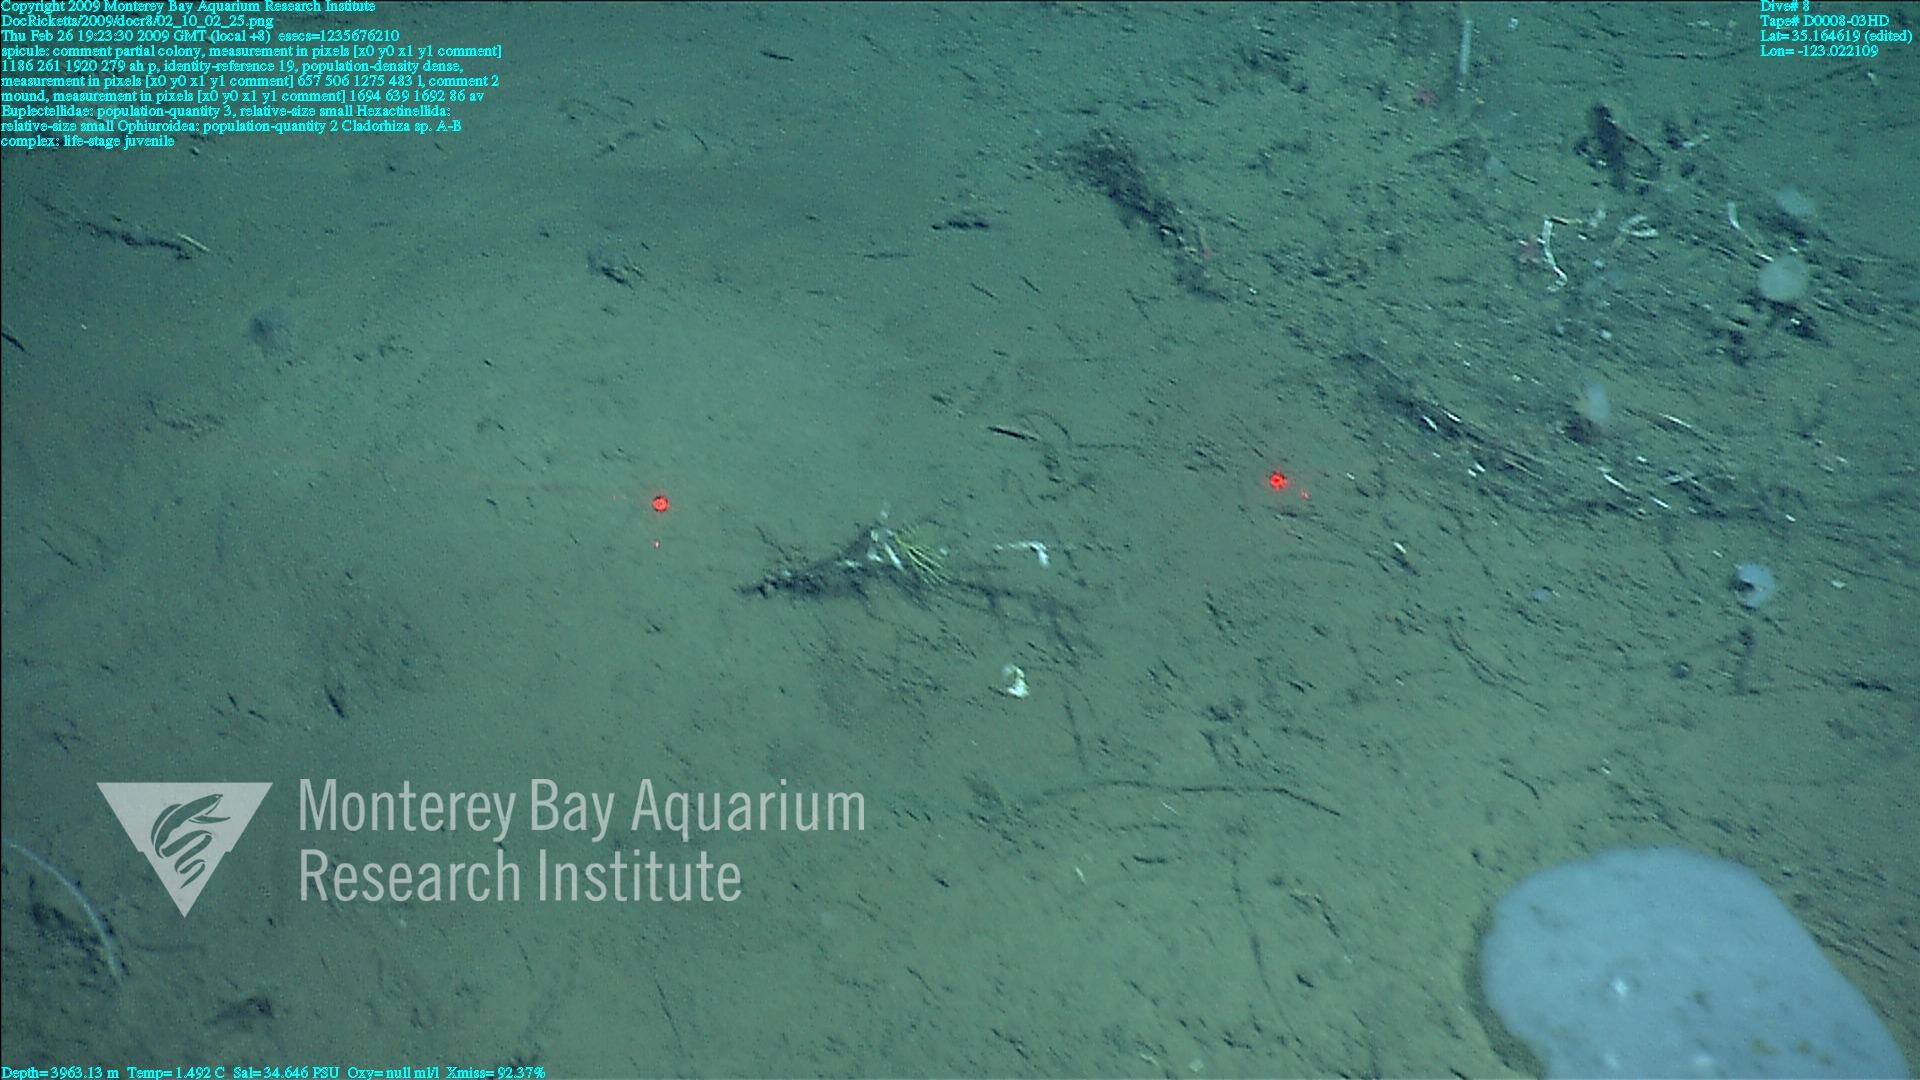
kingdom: Animalia
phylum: Porifera
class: Hexactinellida
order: Lyssacinosida
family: Euplectellidae
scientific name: Euplectellidae
